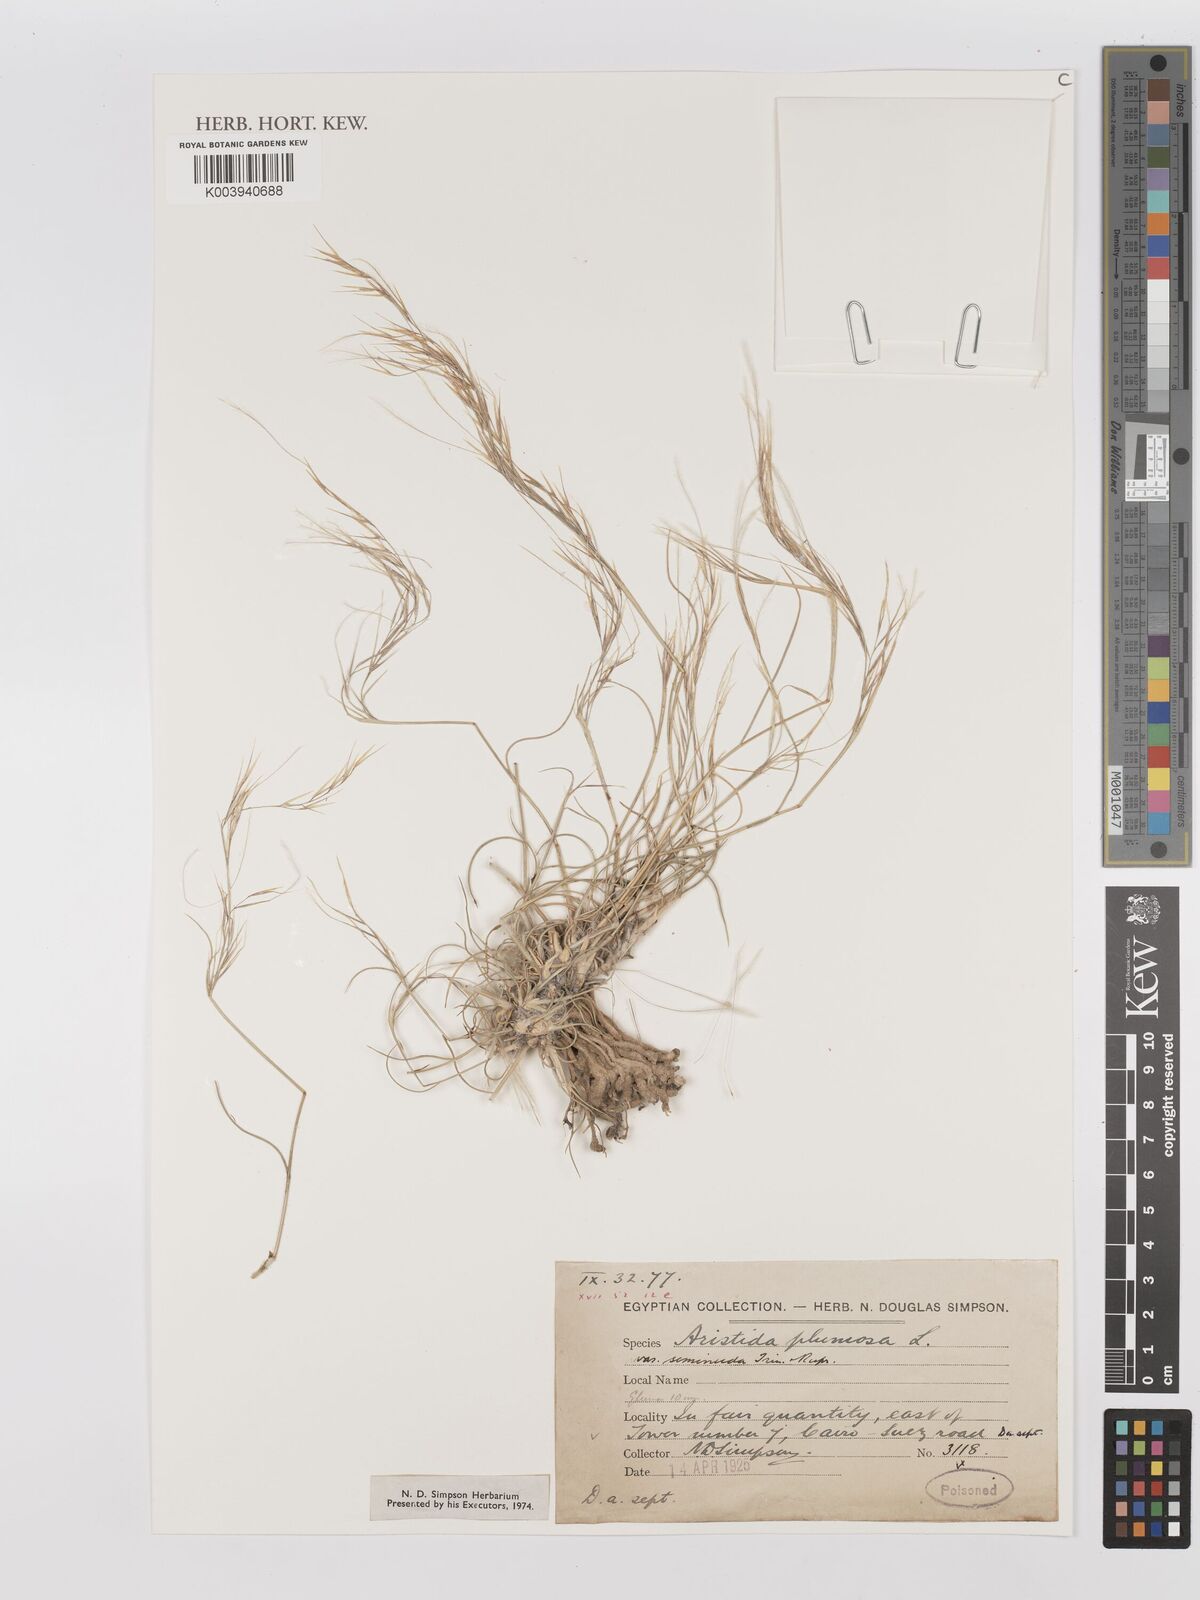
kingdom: Plantae
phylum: Tracheophyta
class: Liliopsida
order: Poales
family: Poaceae
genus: Stipagrostis
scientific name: Stipagrostis plumosa
